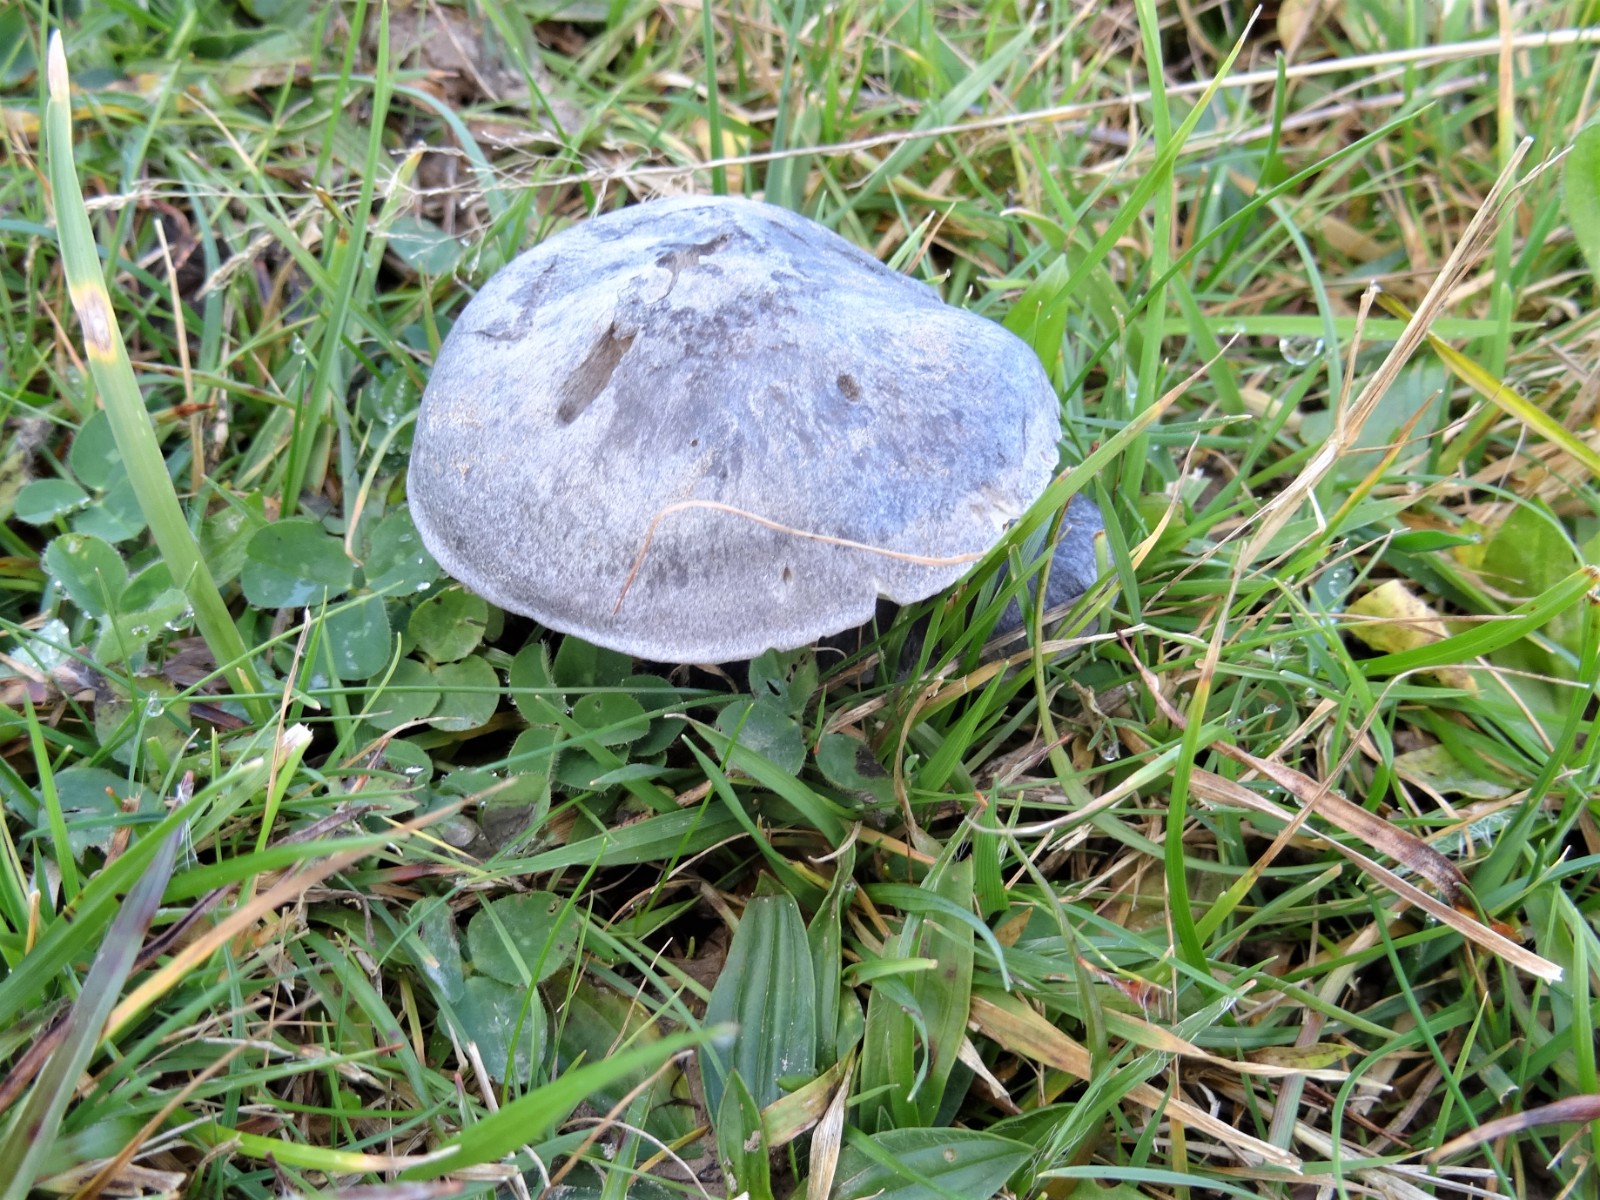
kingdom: Fungi
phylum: Basidiomycota
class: Agaricomycetes
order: Agaricales
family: Entolomataceae
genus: Entoloma
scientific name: Entoloma madidum
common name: indigo-rødblad
